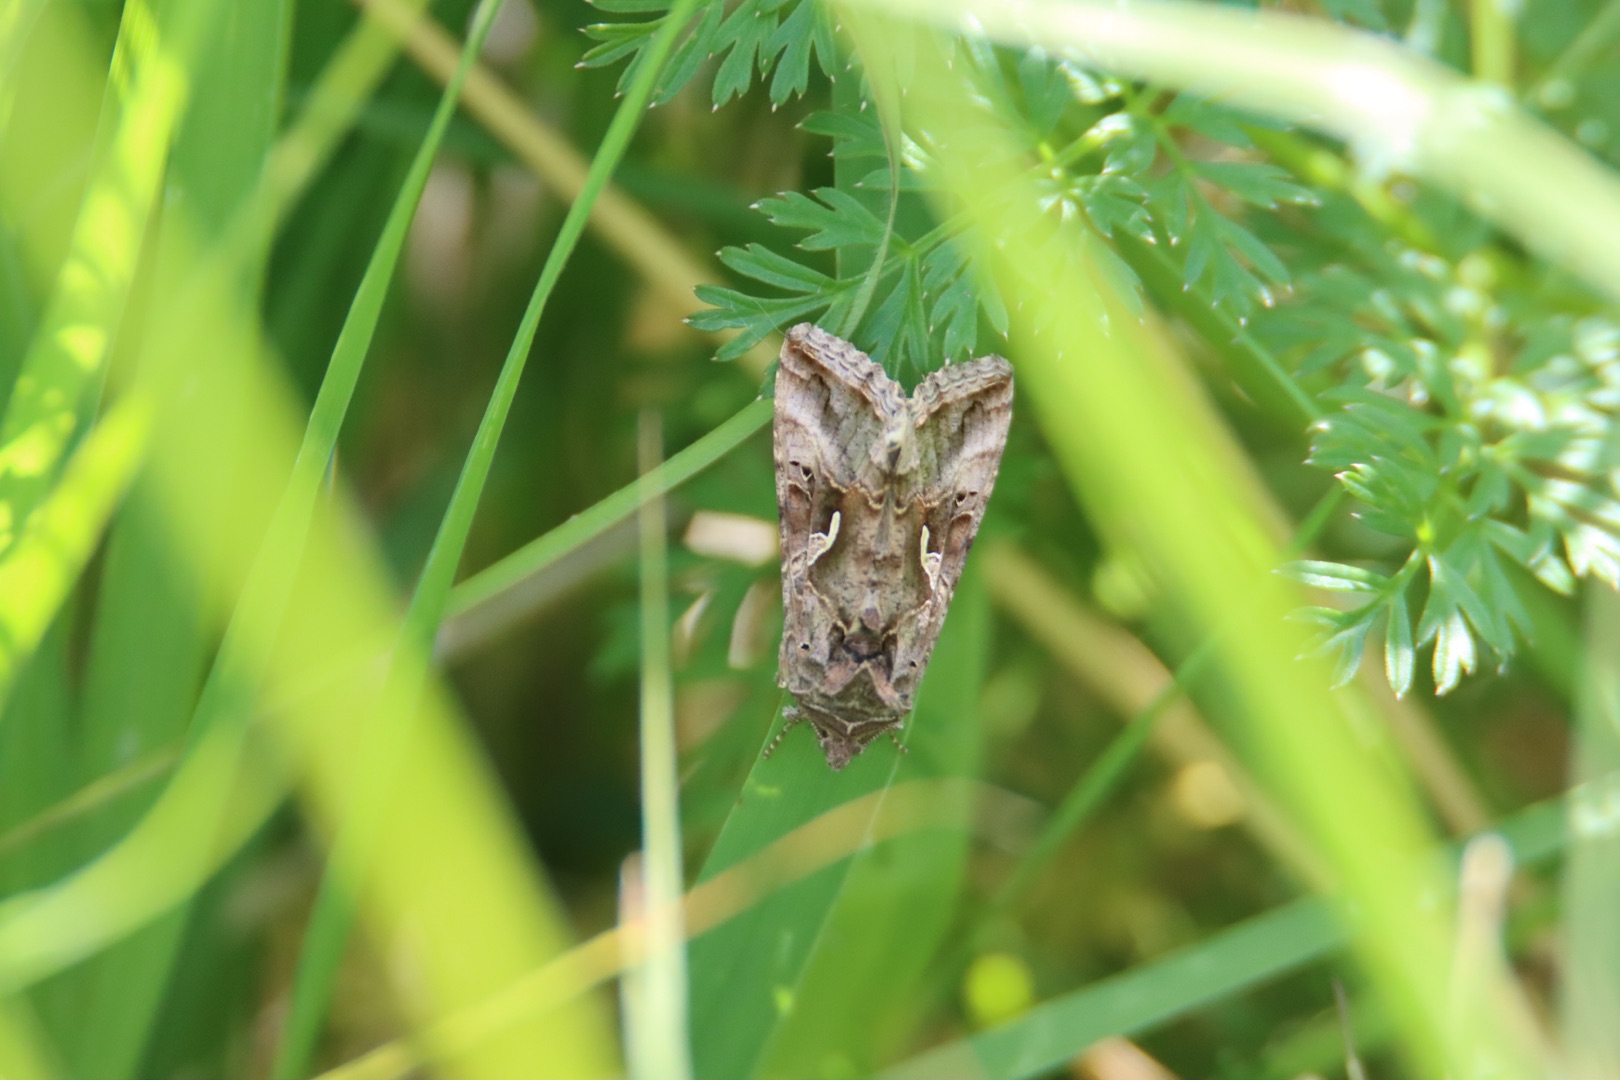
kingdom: Animalia
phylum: Arthropoda
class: Insecta
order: Lepidoptera
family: Noctuidae
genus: Autographa
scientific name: Autographa gamma
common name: Gammaugle
